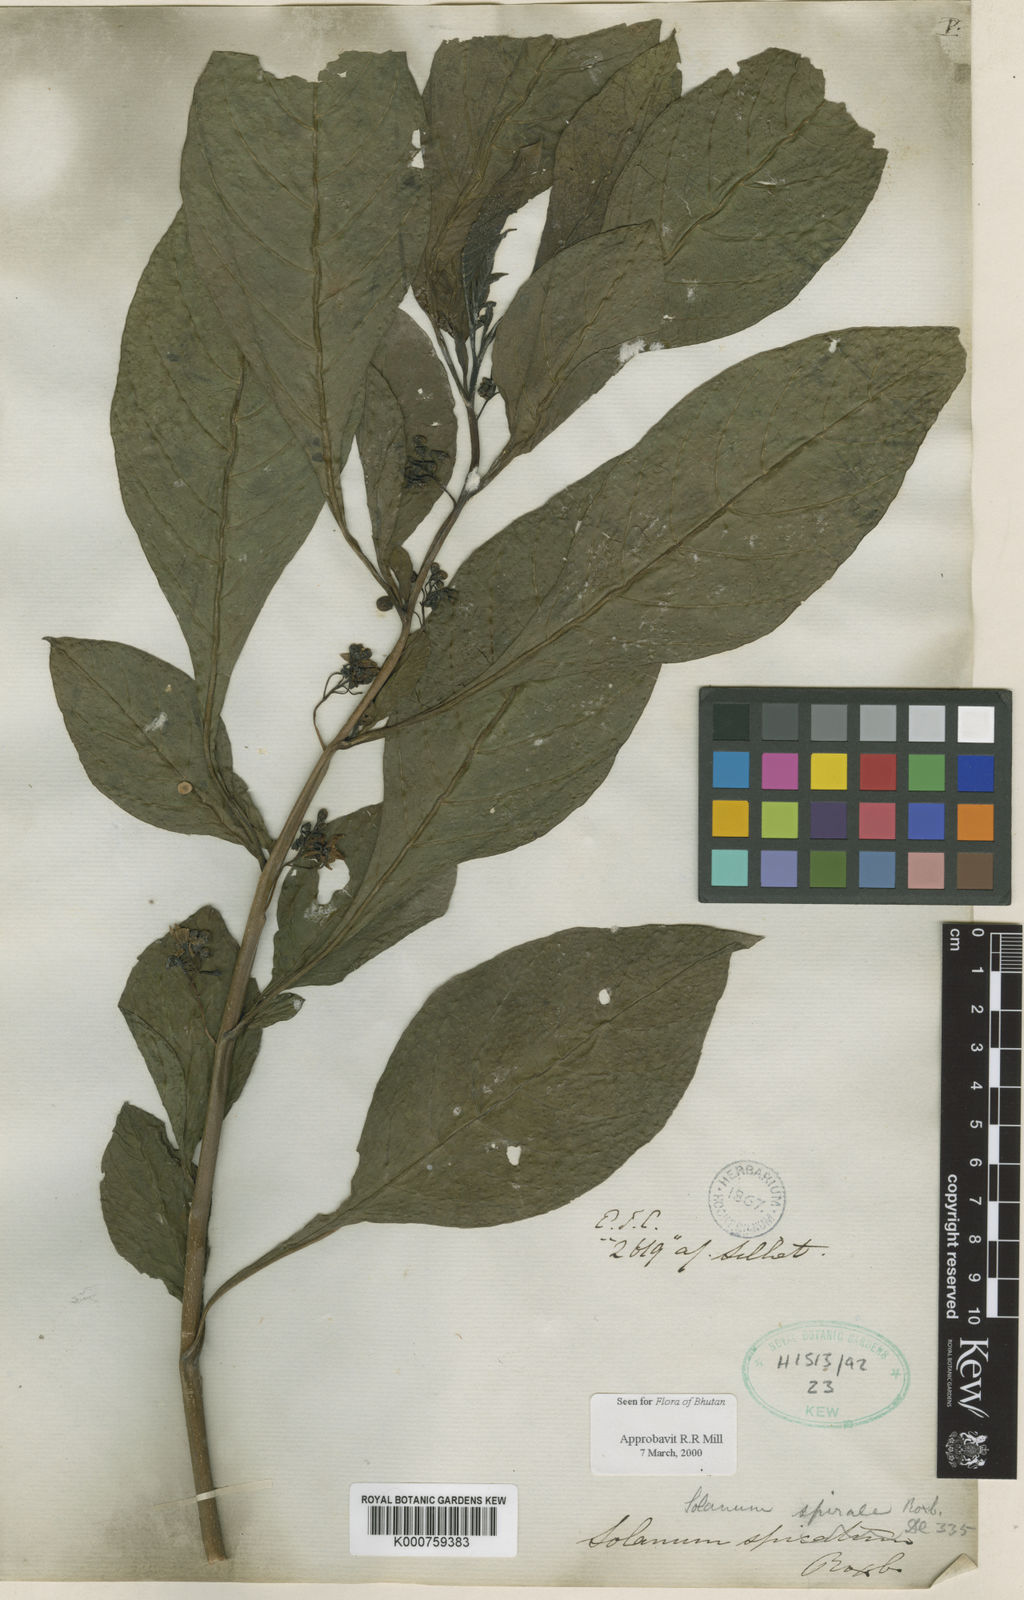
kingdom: Plantae
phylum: Tracheophyta
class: Magnoliopsida
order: Solanales
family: Solanaceae
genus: Solanum
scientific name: Solanum spirale
